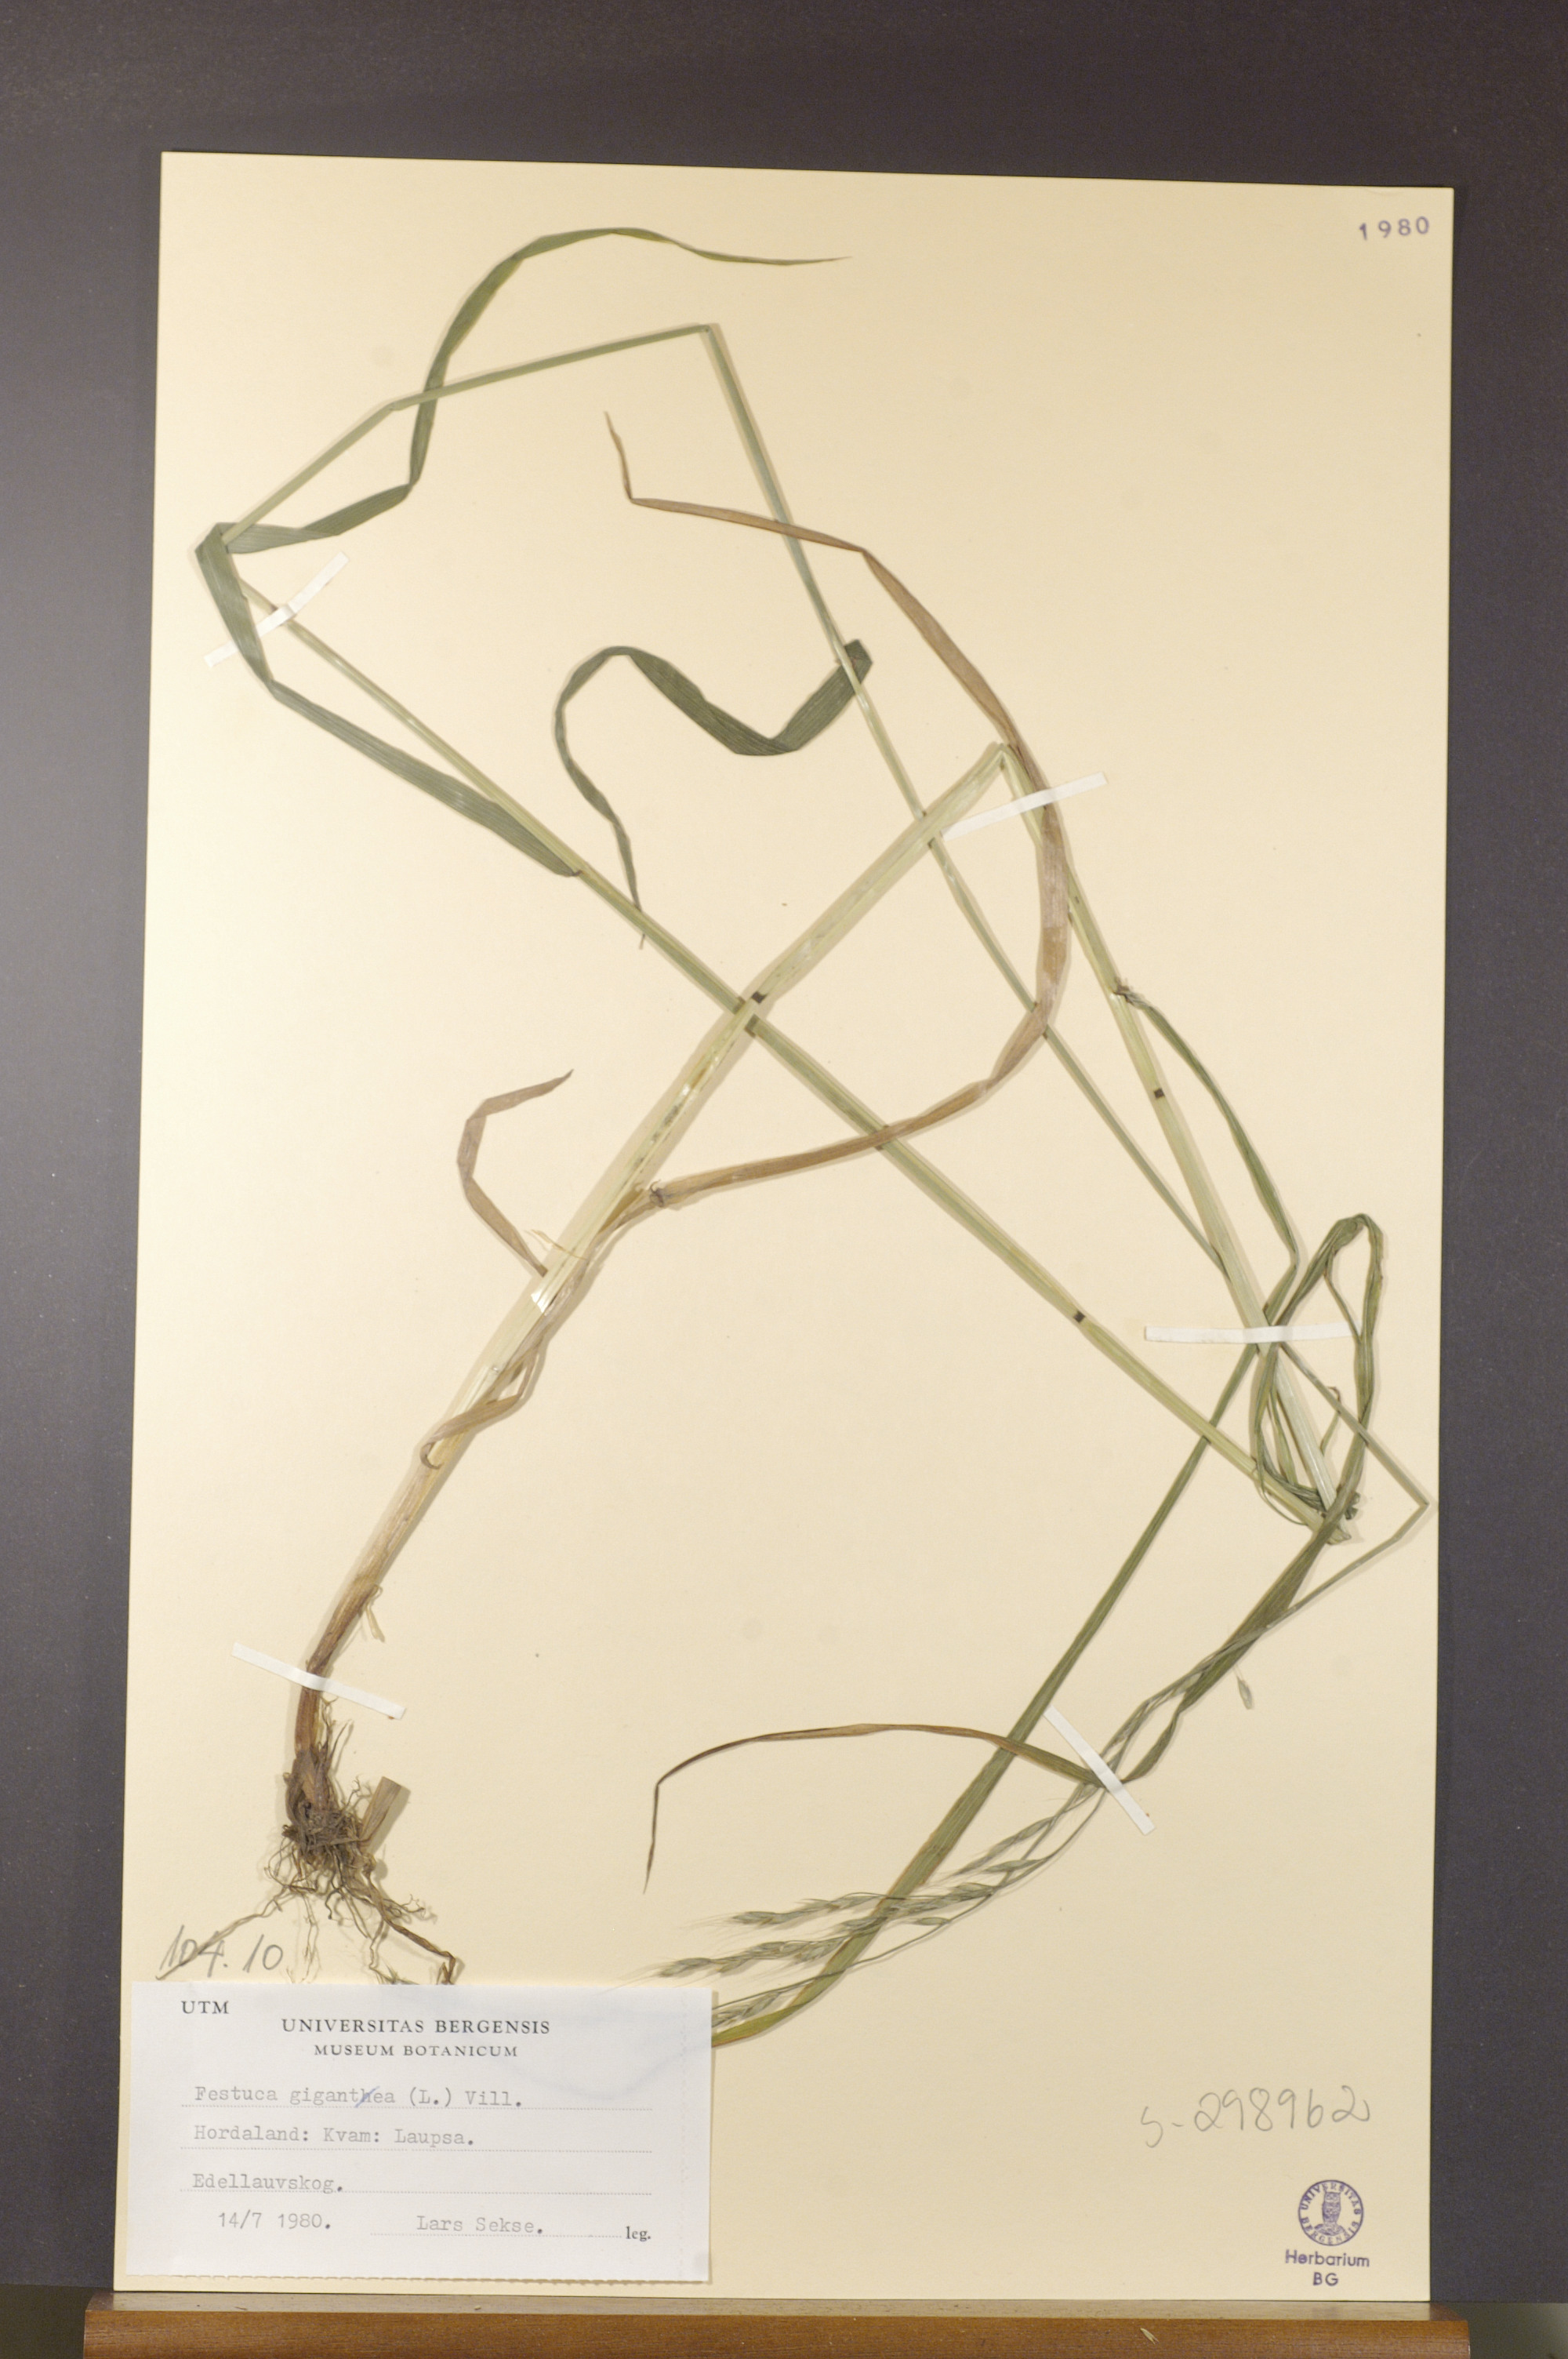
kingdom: Plantae
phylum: Tracheophyta
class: Liliopsida
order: Poales
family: Poaceae
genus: Lolium
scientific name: Lolium giganteum
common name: Giant fescue
